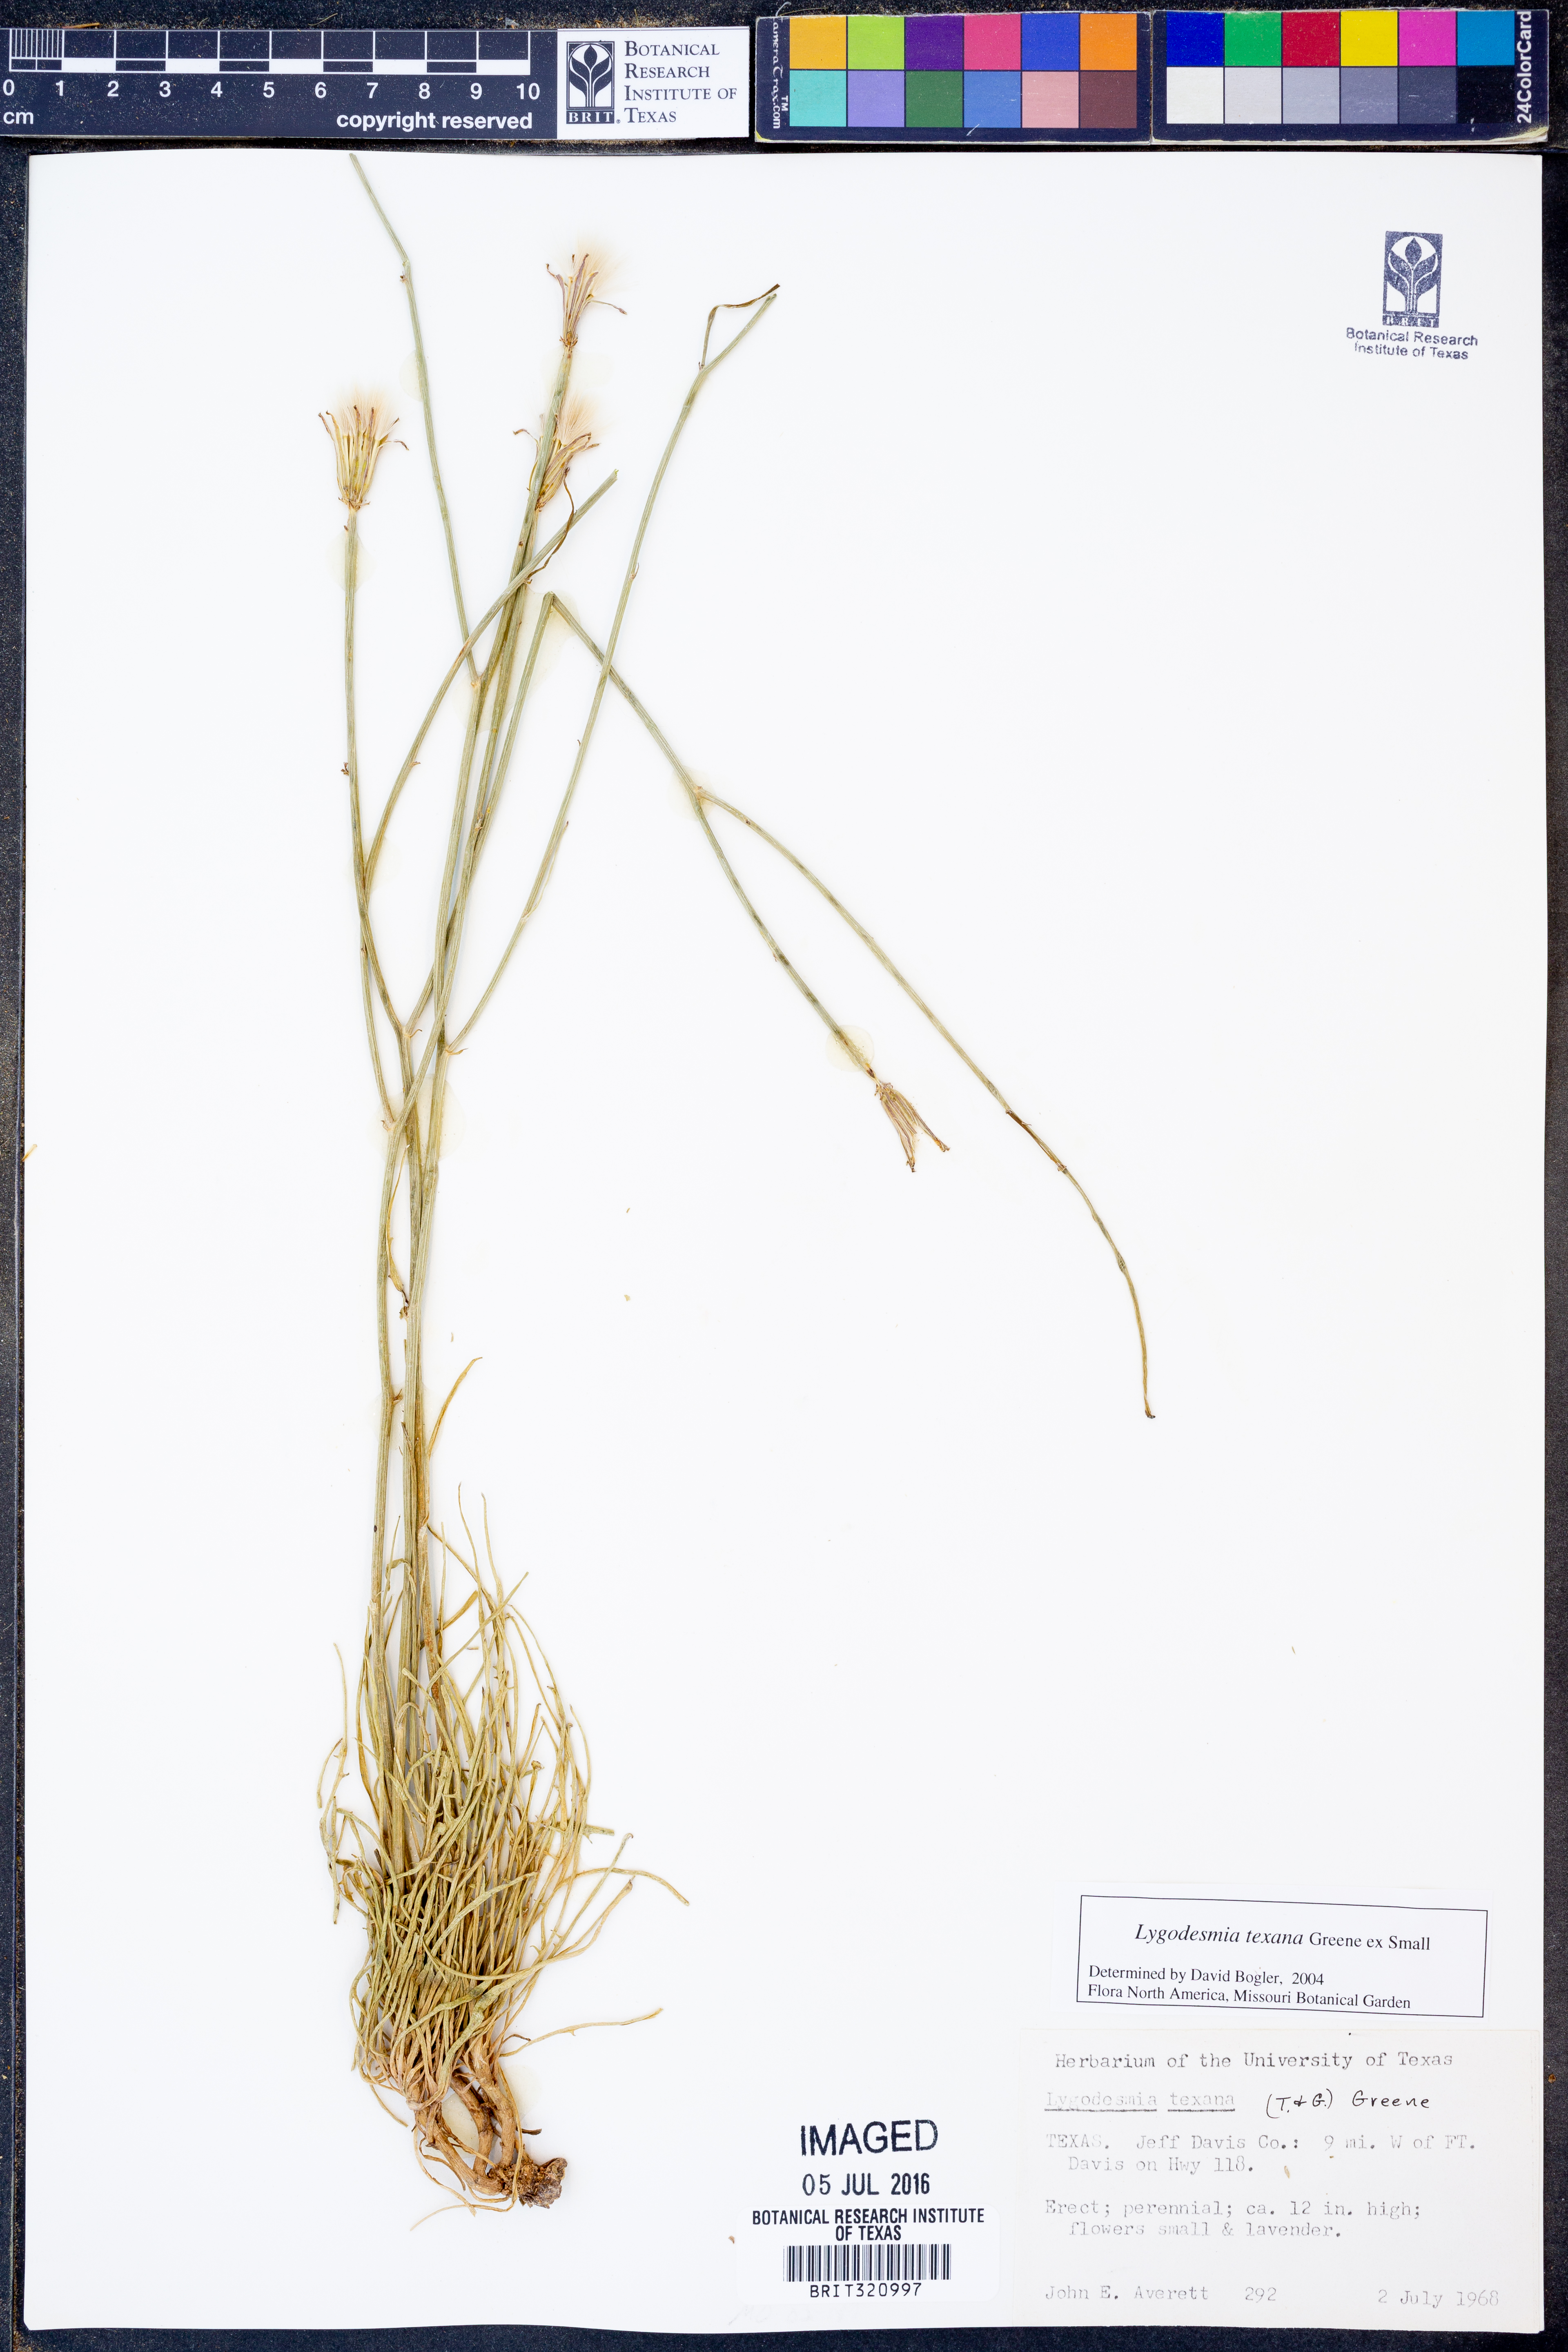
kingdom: Plantae
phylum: Tracheophyta
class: Magnoliopsida
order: Asterales
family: Asteraceae
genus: Lygodesmia
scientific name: Lygodesmia texana
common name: Texas skeleton-plant
